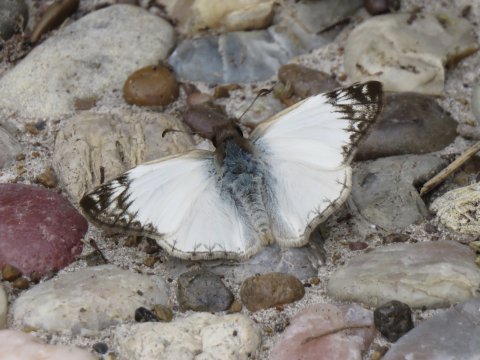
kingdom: Animalia
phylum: Arthropoda
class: Insecta
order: Lepidoptera
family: Hesperiidae
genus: Heliopetes
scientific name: Heliopetes laviana
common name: Laviana White-Skipper
